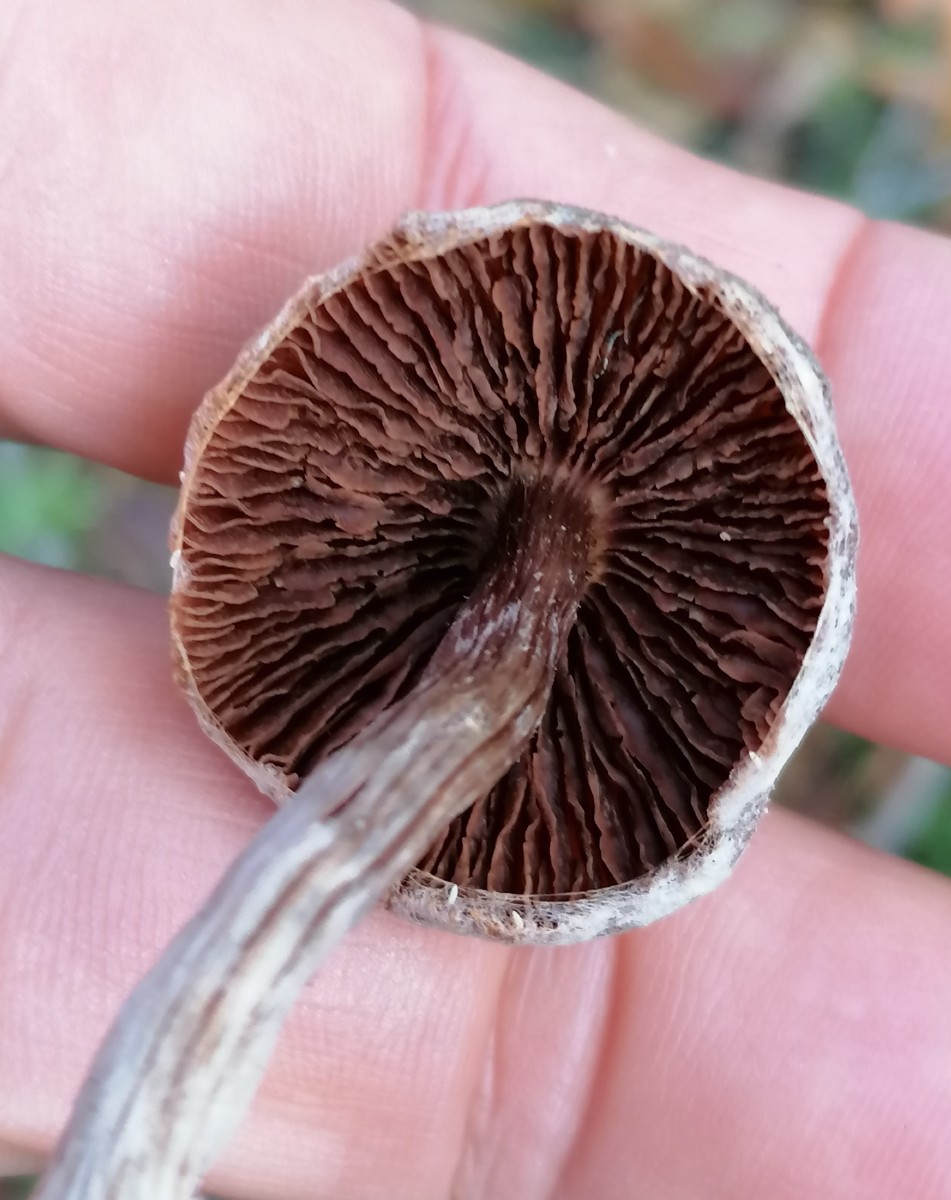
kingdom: Fungi
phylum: Basidiomycota
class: Agaricomycetes
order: Agaricales
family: Cortinariaceae
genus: Cortinarius
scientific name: Cortinarius hemitrichus
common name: hvidfnugget slørhat
